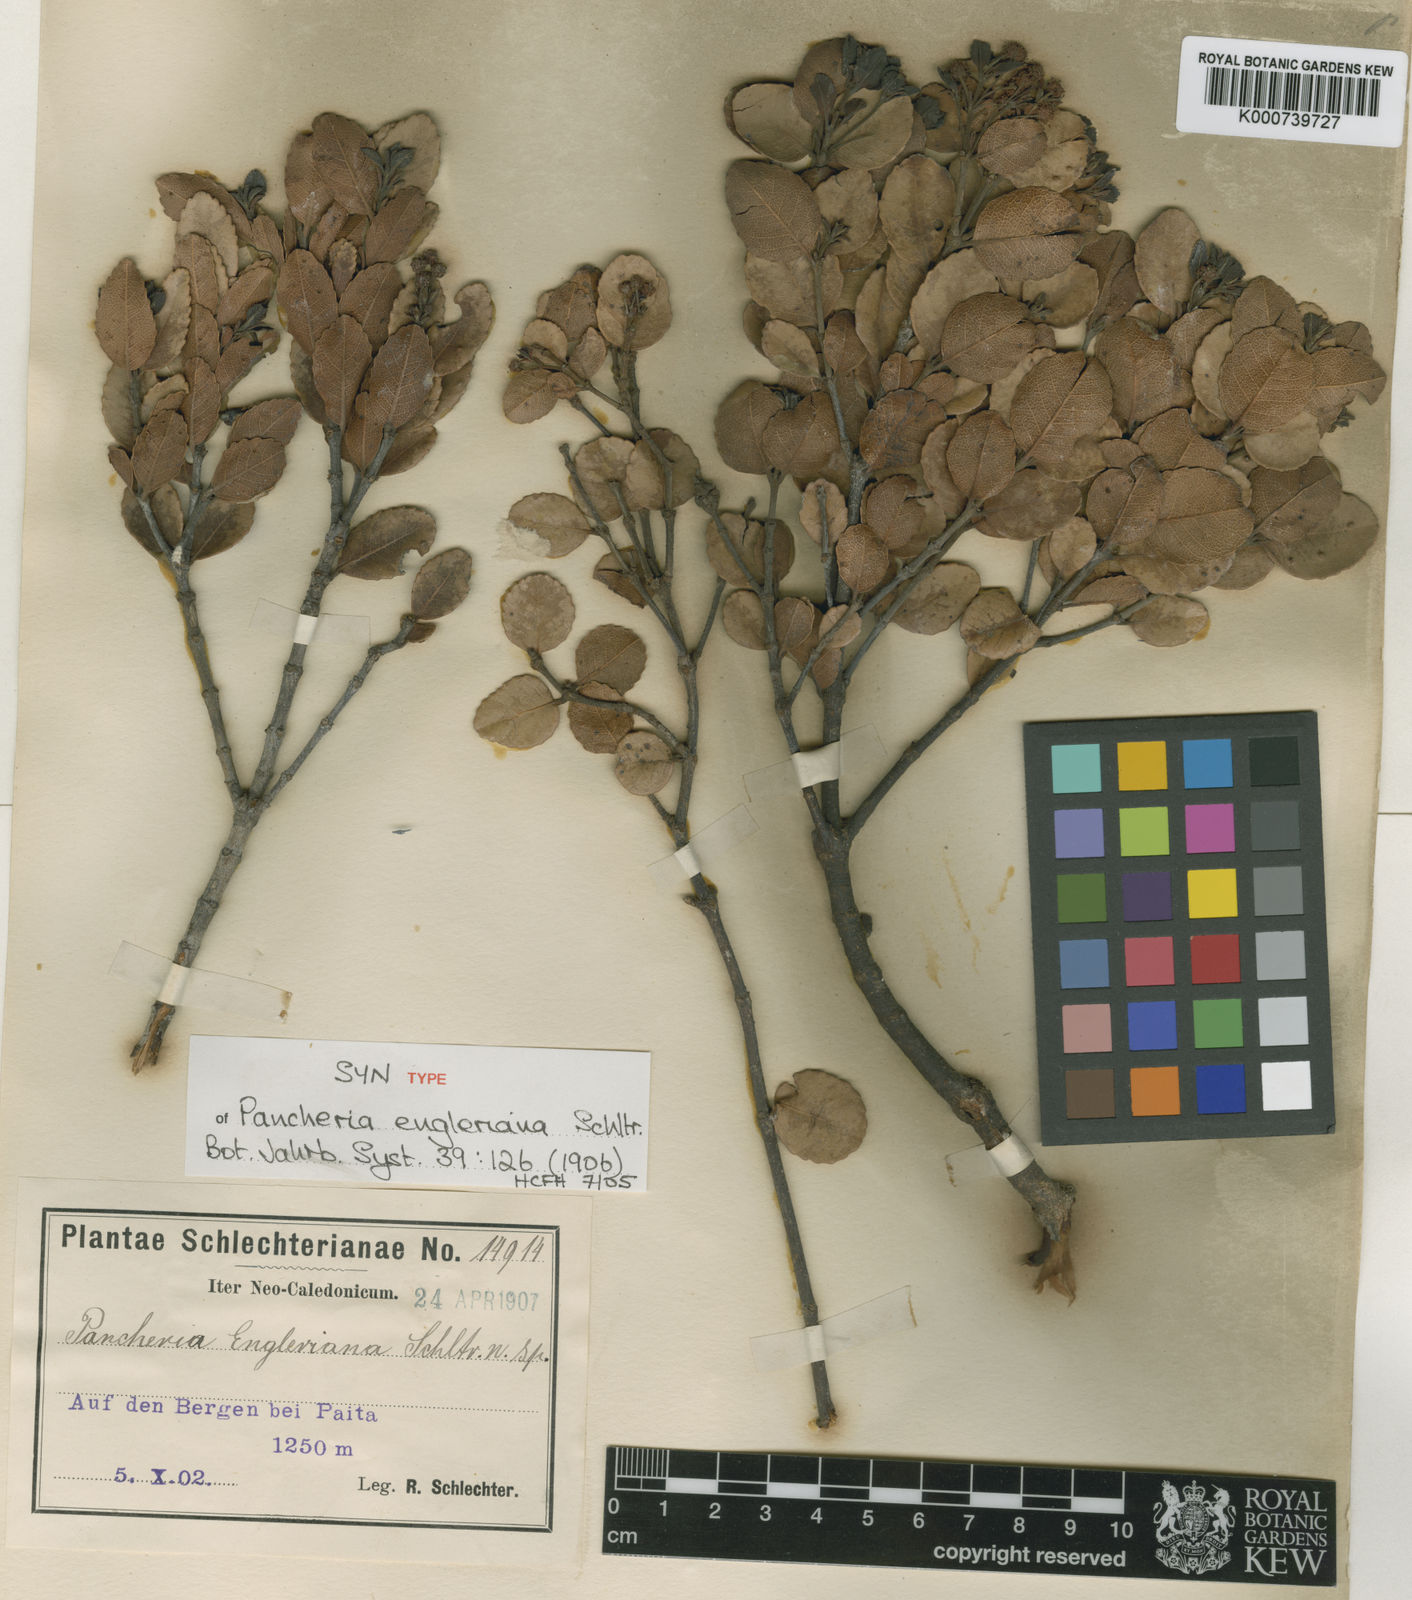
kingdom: Plantae
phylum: Tracheophyta
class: Magnoliopsida
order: Oxalidales
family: Cunoniaceae
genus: Pancheria
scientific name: Pancheria engleriana
